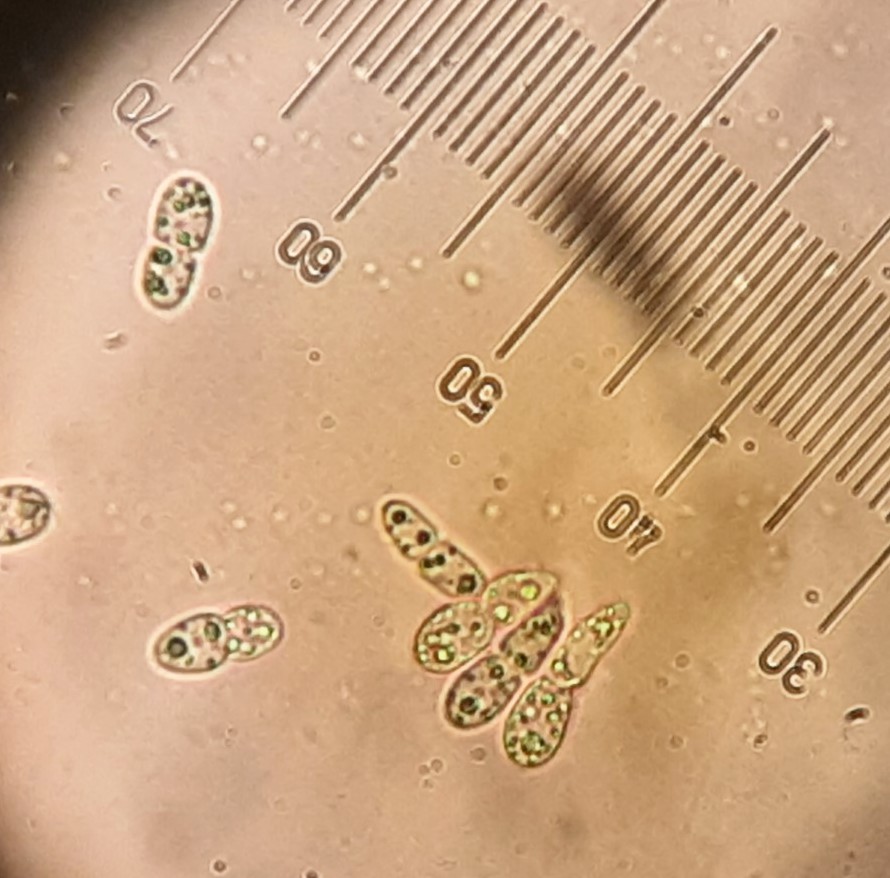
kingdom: Fungi
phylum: Ascomycota
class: Leotiomycetes
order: Helotiales
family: Drepanopezizaceae
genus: Diplocarpon
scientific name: Diplocarpon rosae
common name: Rose black-spot
